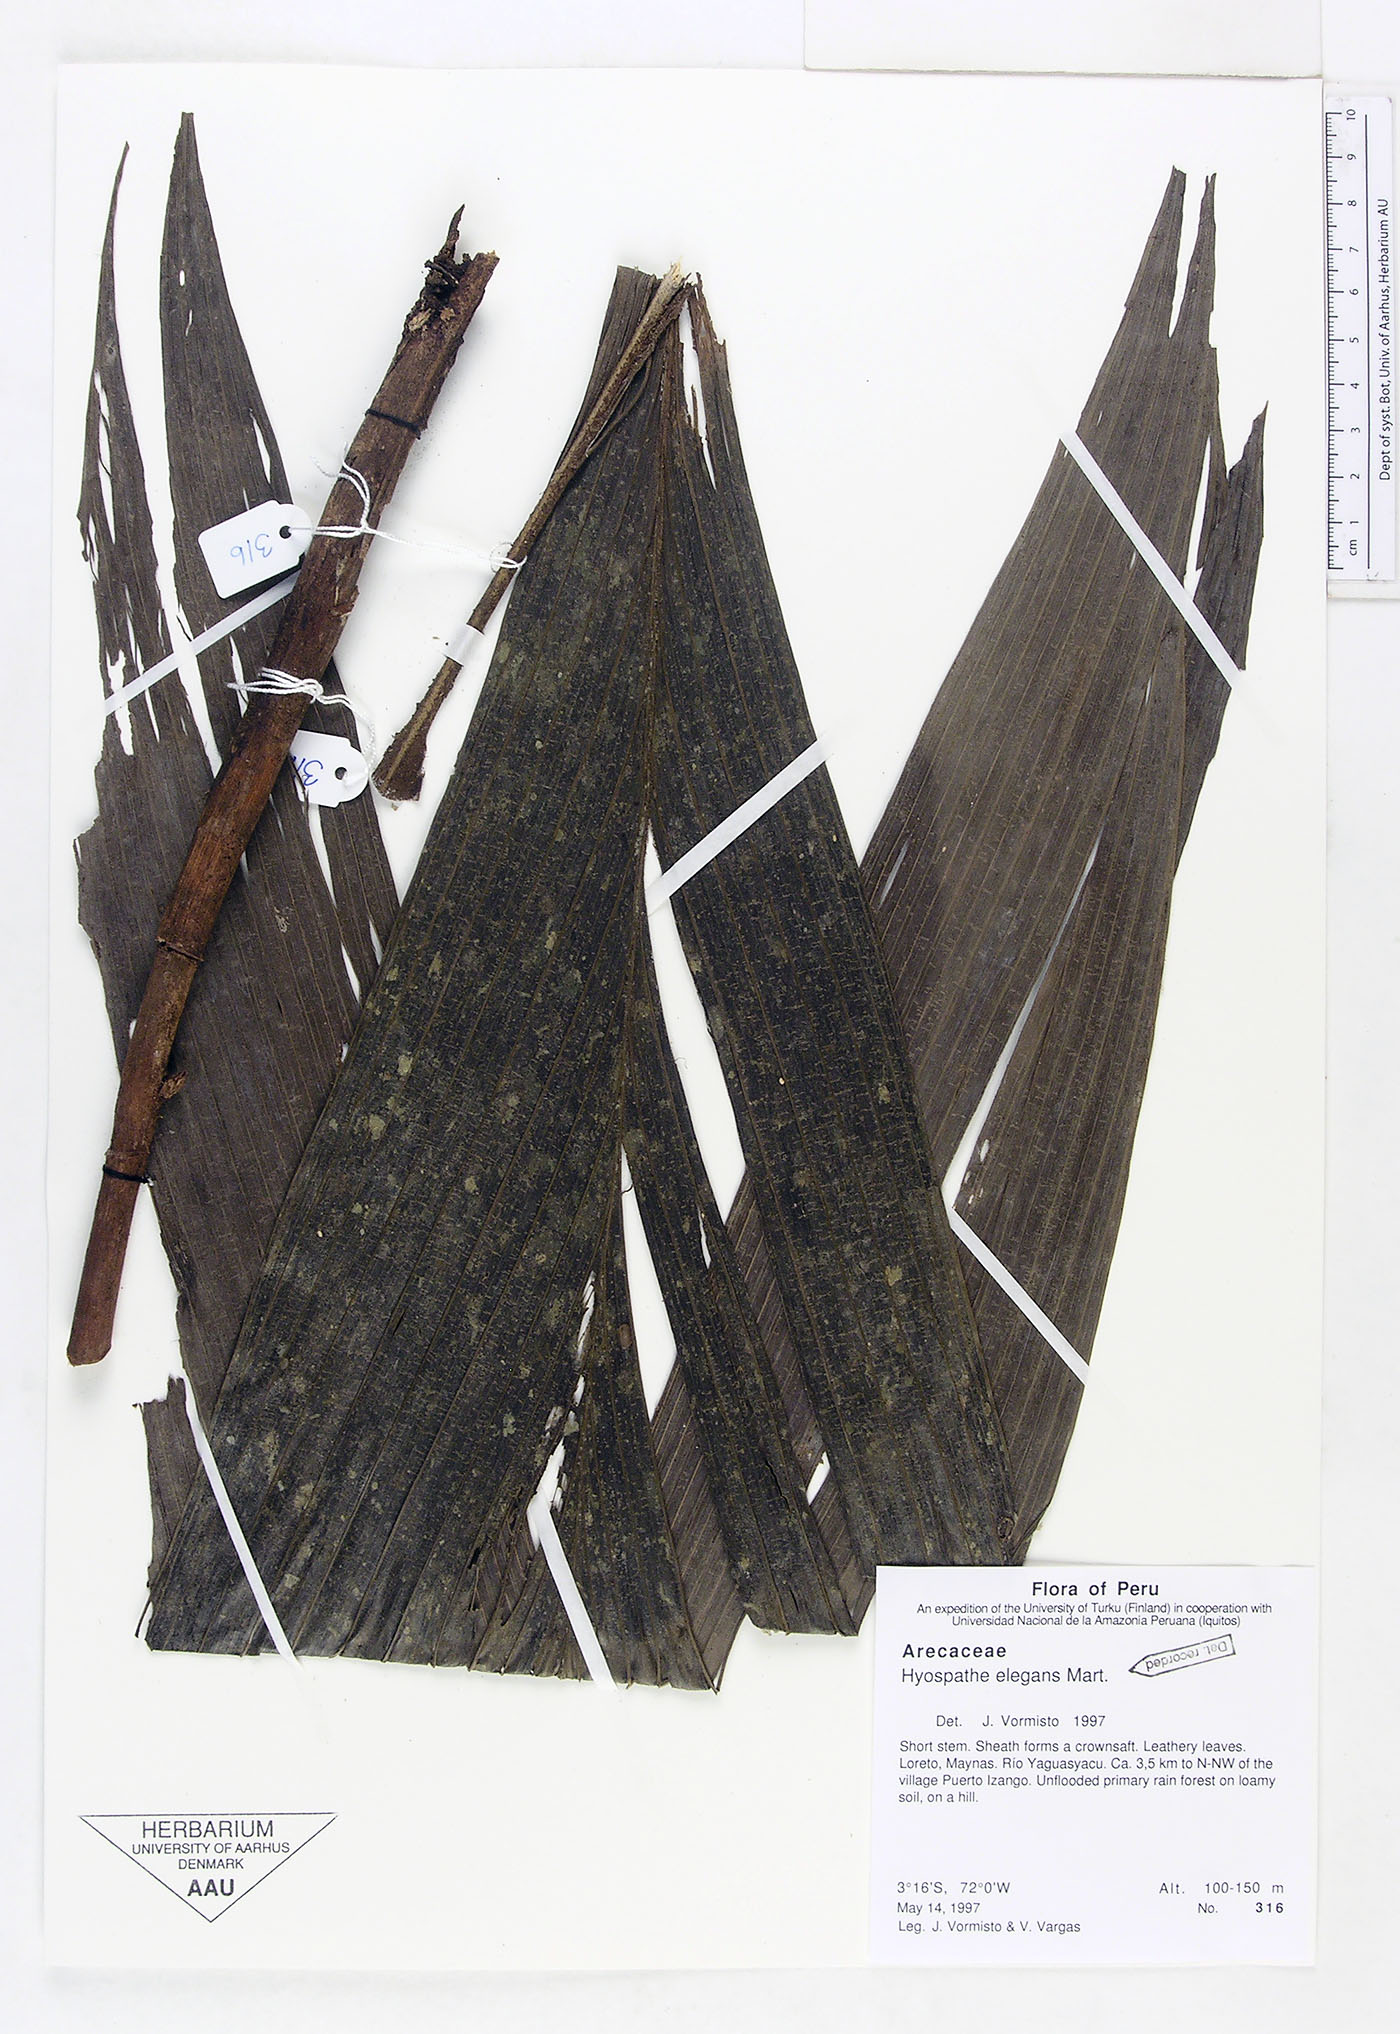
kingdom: Plantae
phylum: Tracheophyta
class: Liliopsida
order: Arecales
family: Arecaceae
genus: Hyospathe
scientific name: Hyospathe elegans
